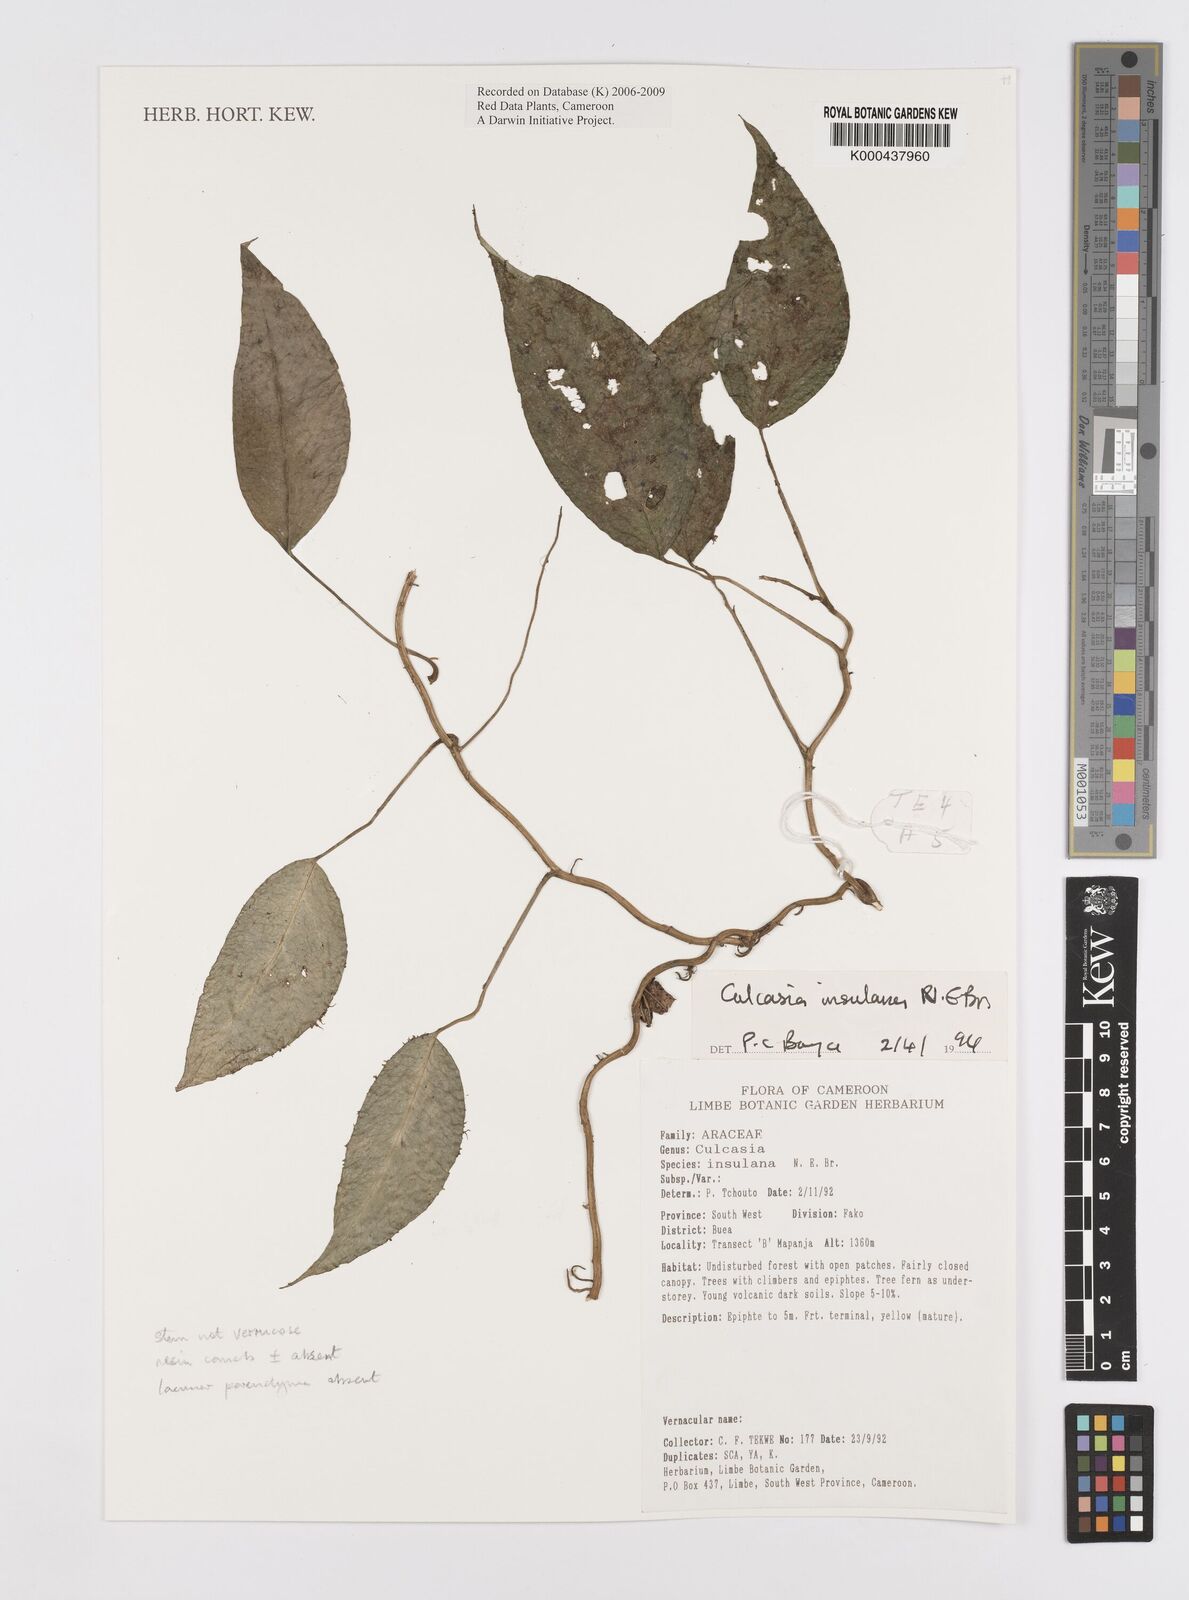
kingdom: Plantae
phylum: Tracheophyta
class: Liliopsida
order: Alismatales
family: Araceae
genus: Culcasia
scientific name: Culcasia insulana
